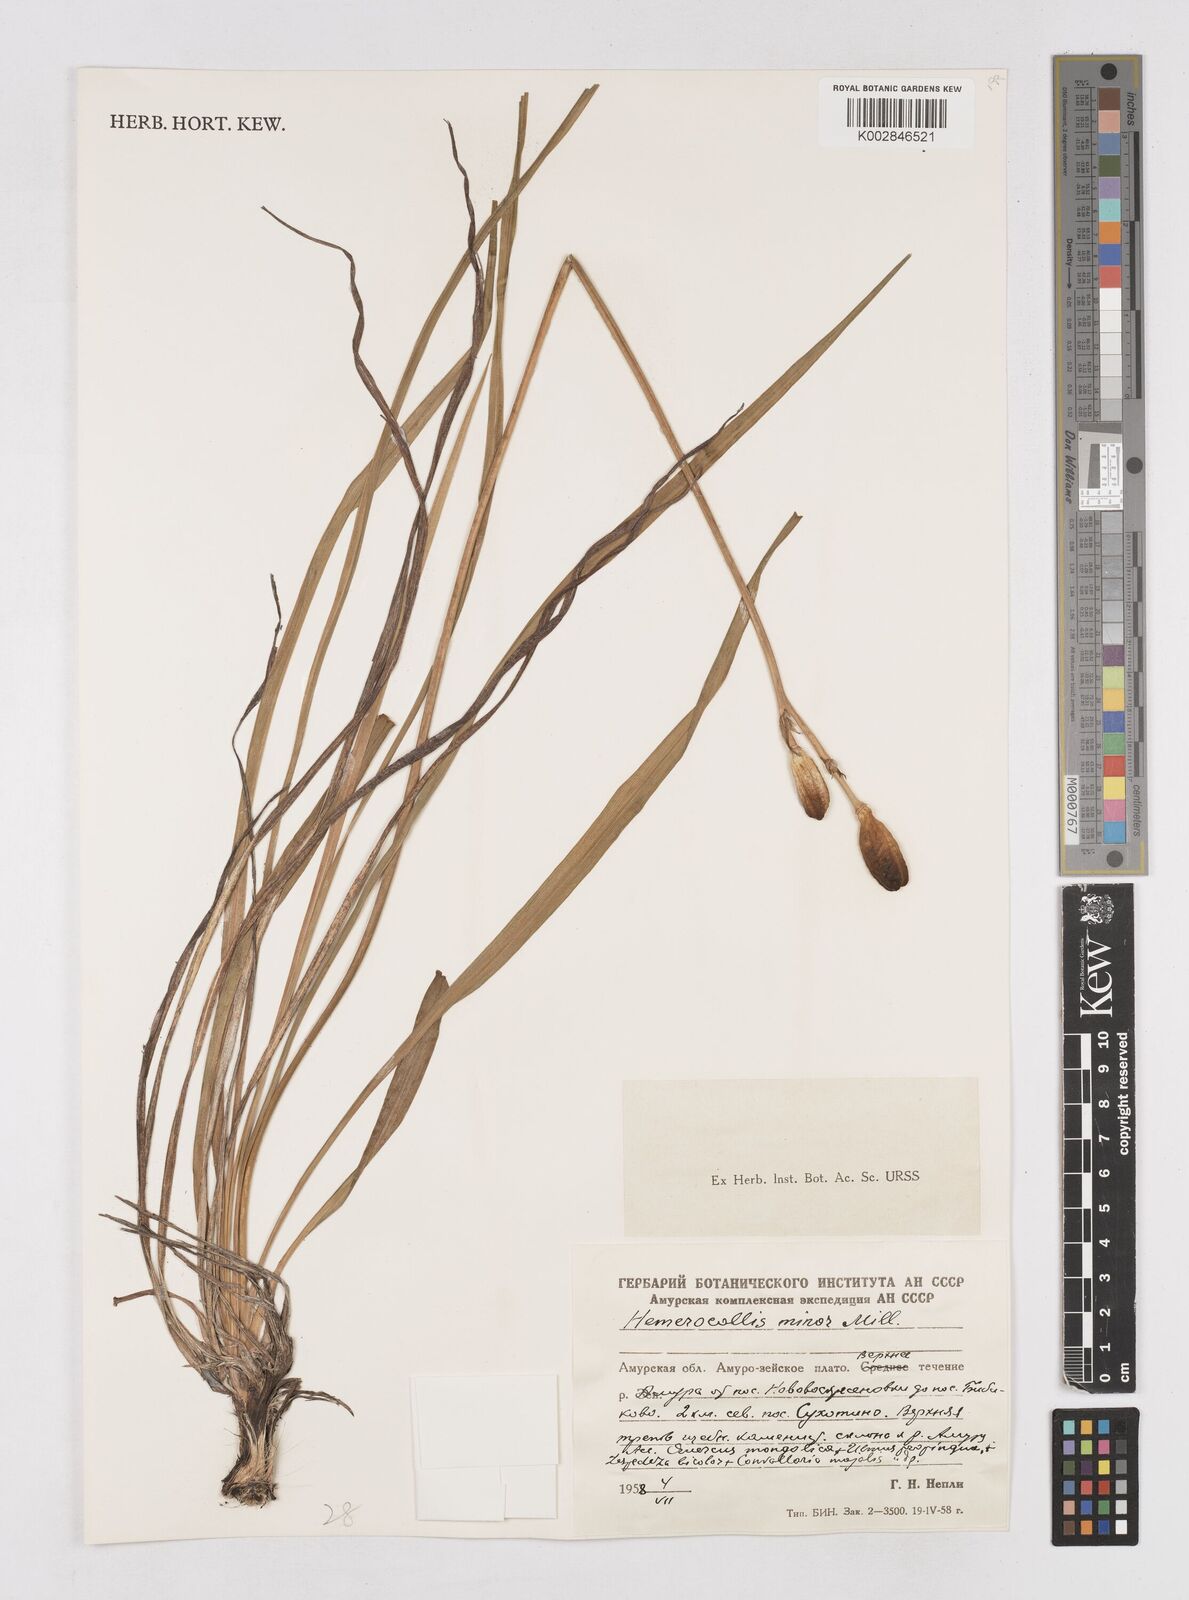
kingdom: Plantae
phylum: Tracheophyta
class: Liliopsida
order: Asparagales
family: Asphodelaceae
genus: Hemerocallis
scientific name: Hemerocallis minor
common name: Small daylily
